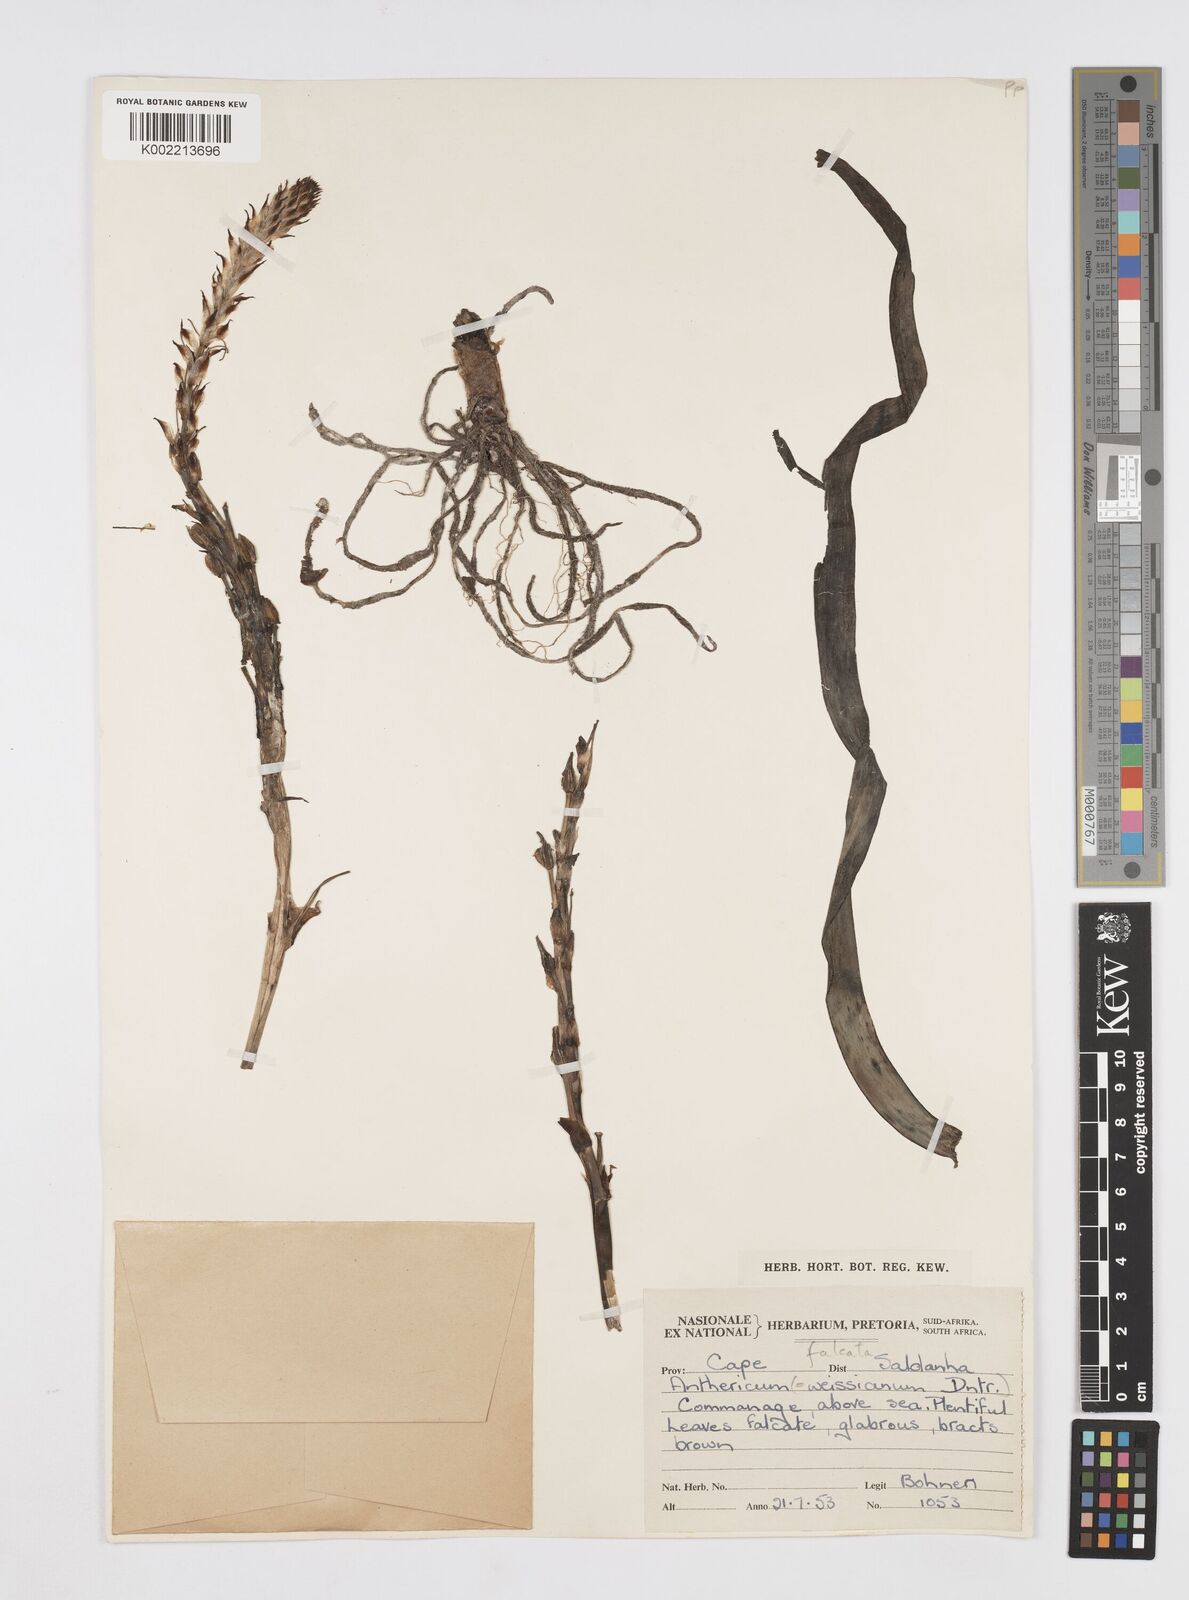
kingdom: Plantae
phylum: Tracheophyta
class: Liliopsida
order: Asparagales
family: Asphodelaceae
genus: Trachyandra
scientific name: Trachyandra falcata
